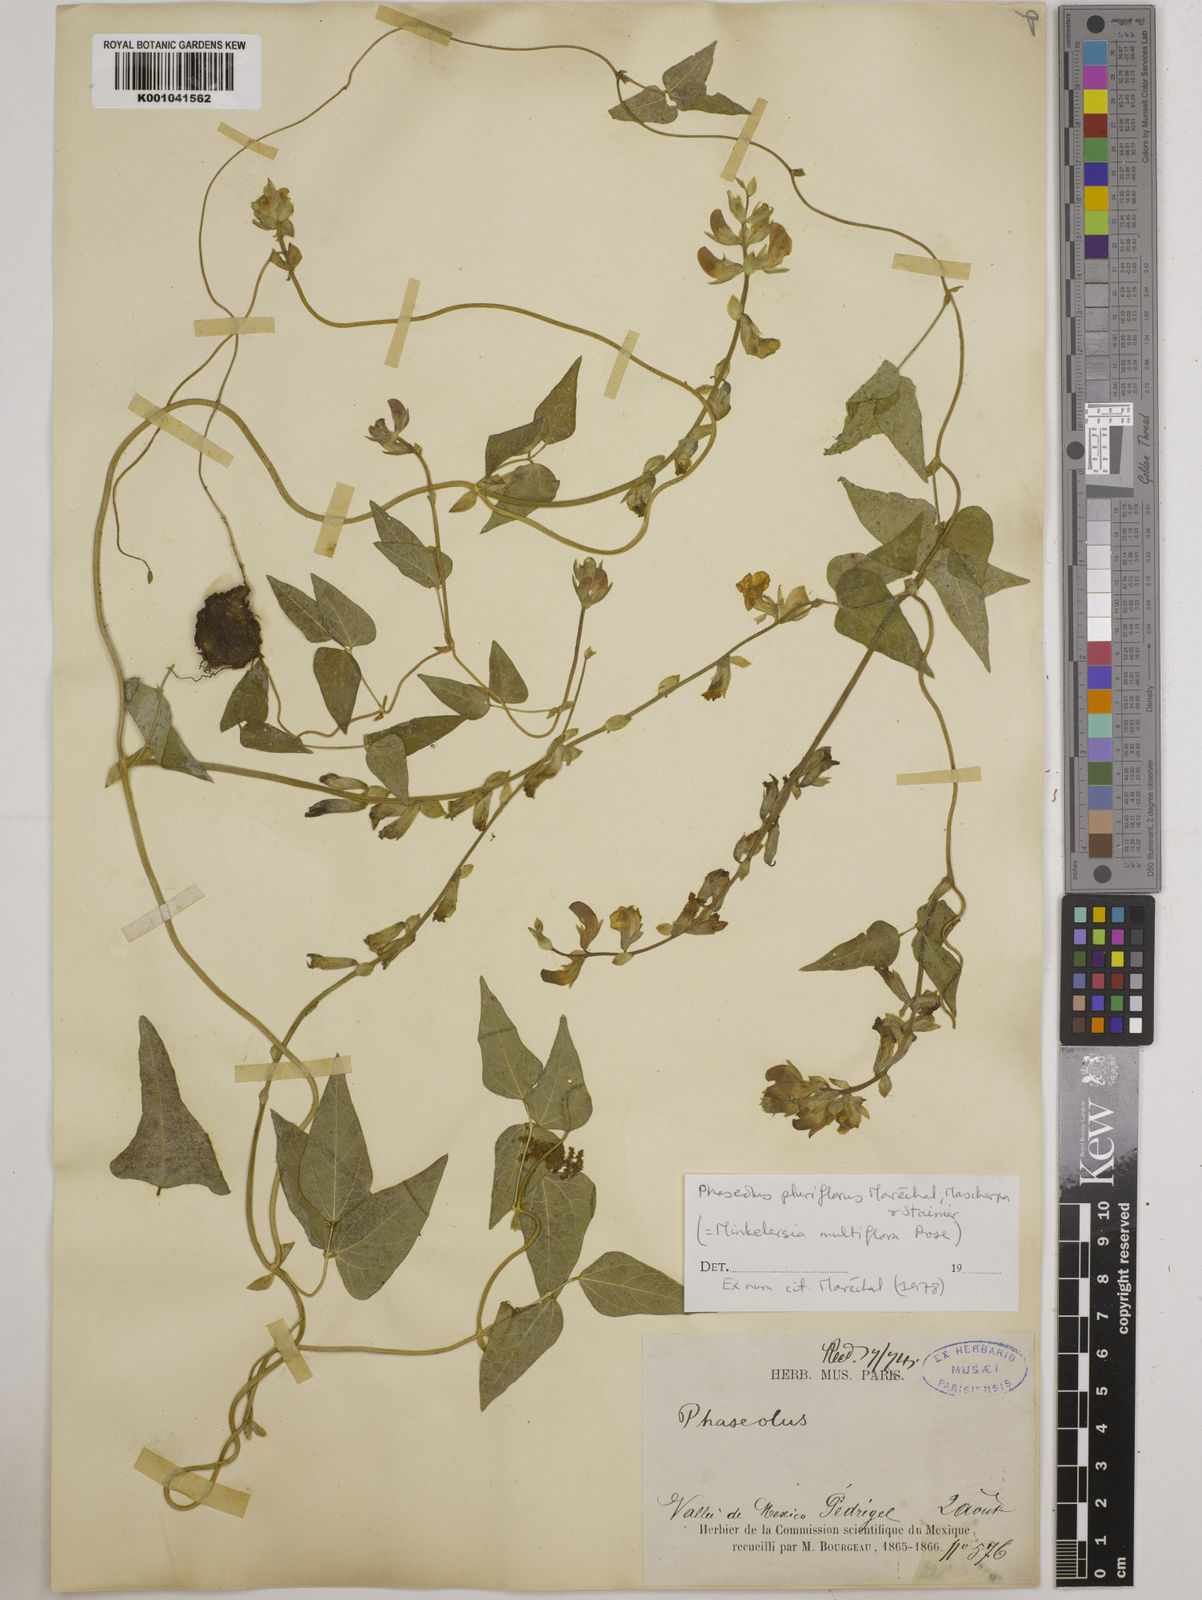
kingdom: Plantae
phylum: Tracheophyta
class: Magnoliopsida
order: Fabales
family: Fabaceae
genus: Phaseolus
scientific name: Phaseolus vulcanicus
